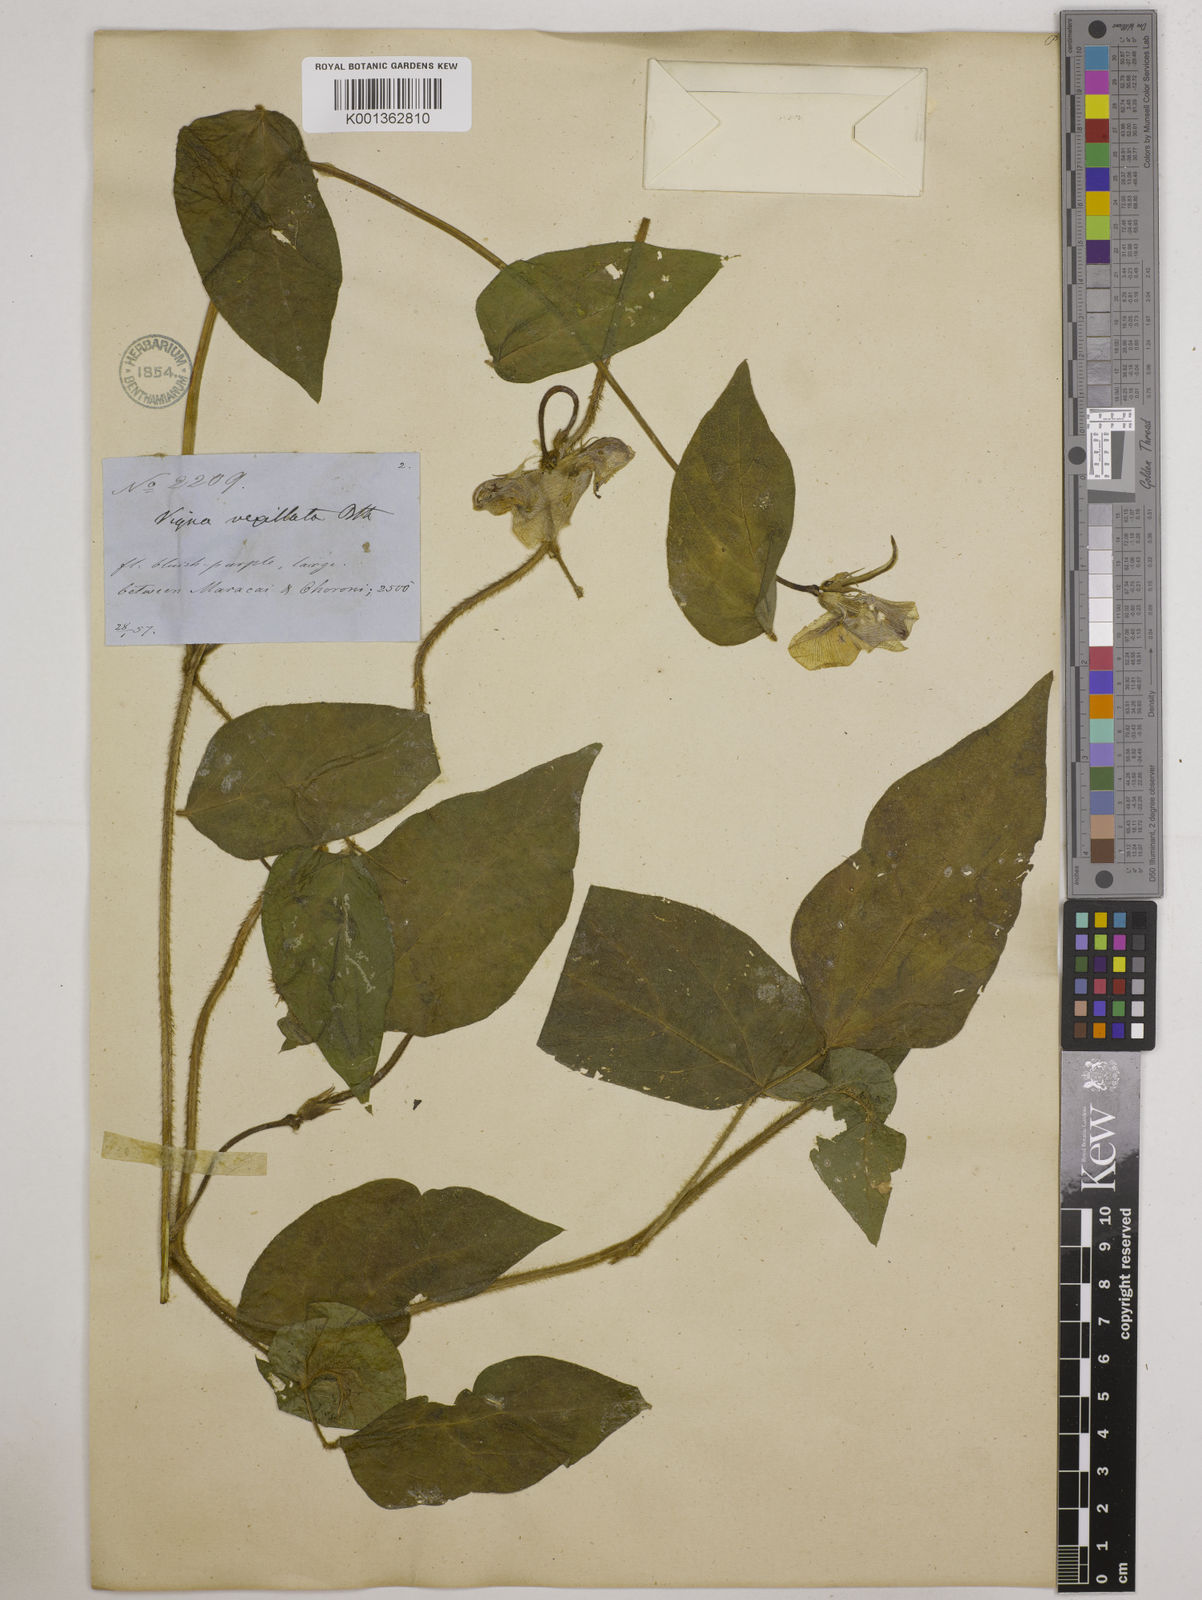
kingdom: Plantae
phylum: Tracheophyta
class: Magnoliopsida
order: Fabales
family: Fabaceae
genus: Vigna
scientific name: Vigna vexillata
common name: Zombi pea
